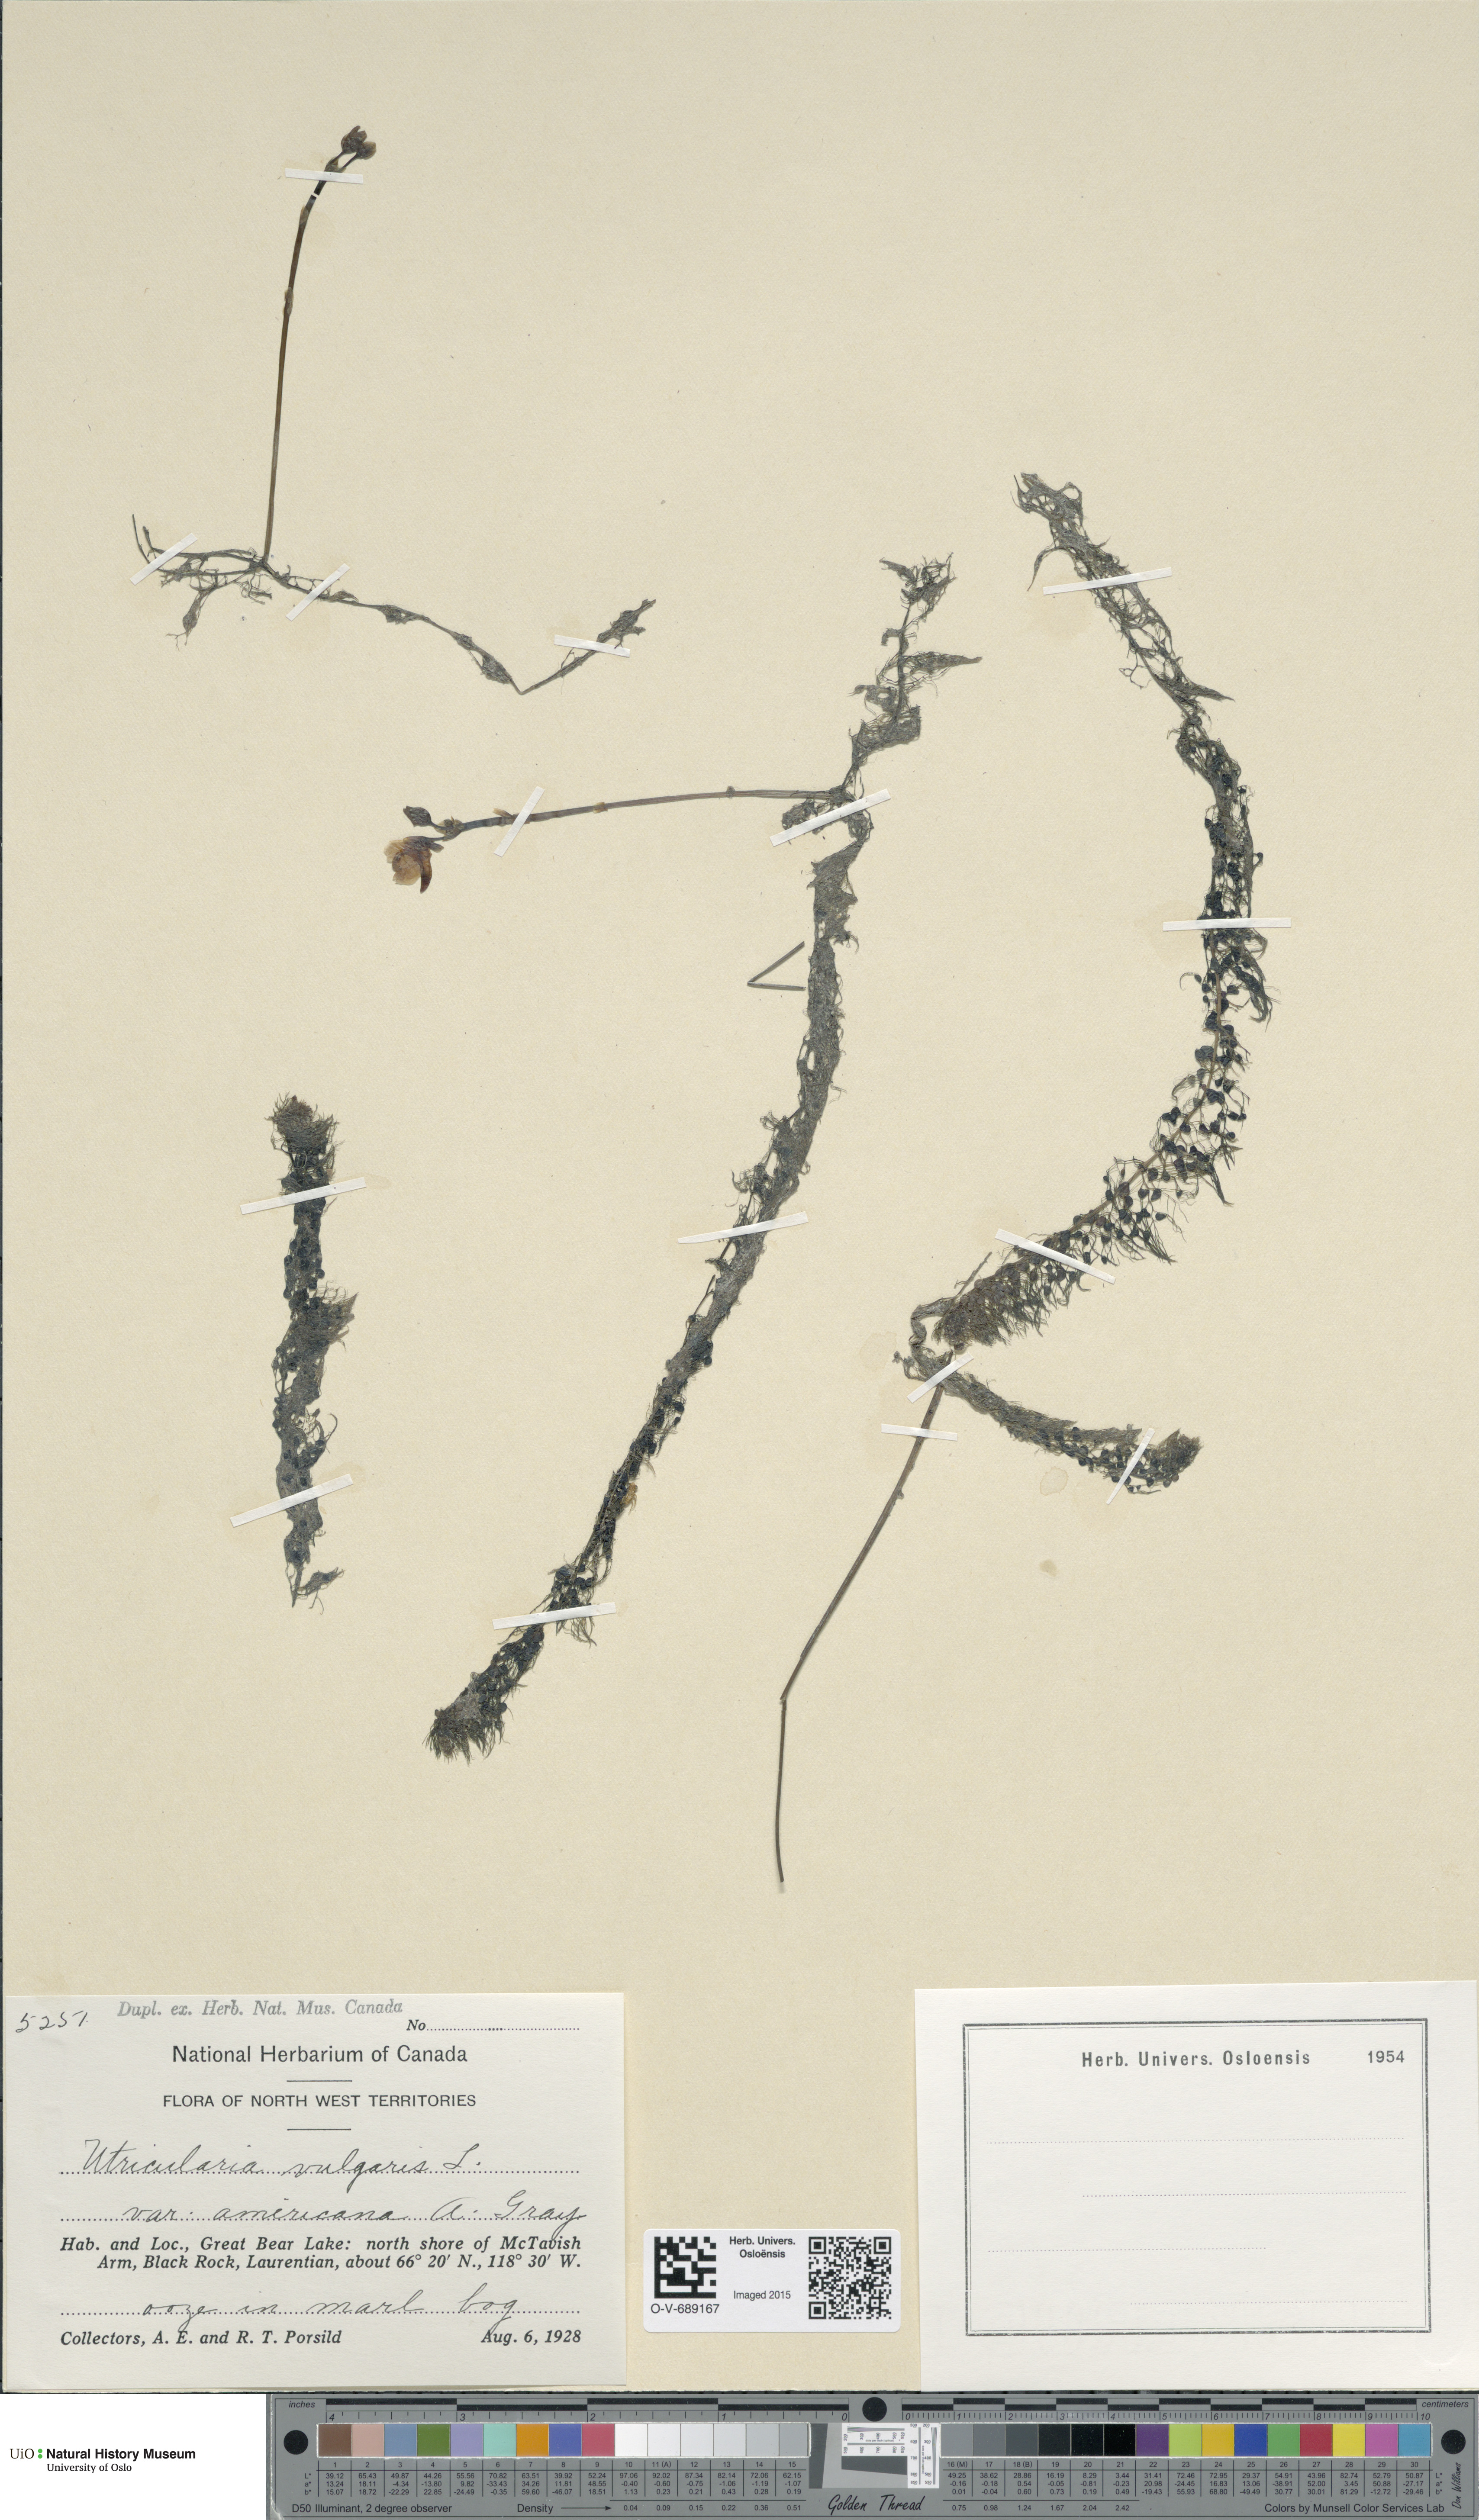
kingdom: Plantae
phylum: Tracheophyta
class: Magnoliopsida
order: Lamiales
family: Lentibulariaceae
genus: Utricularia
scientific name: Utricularia macrorhiza
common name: Common bladderwort
